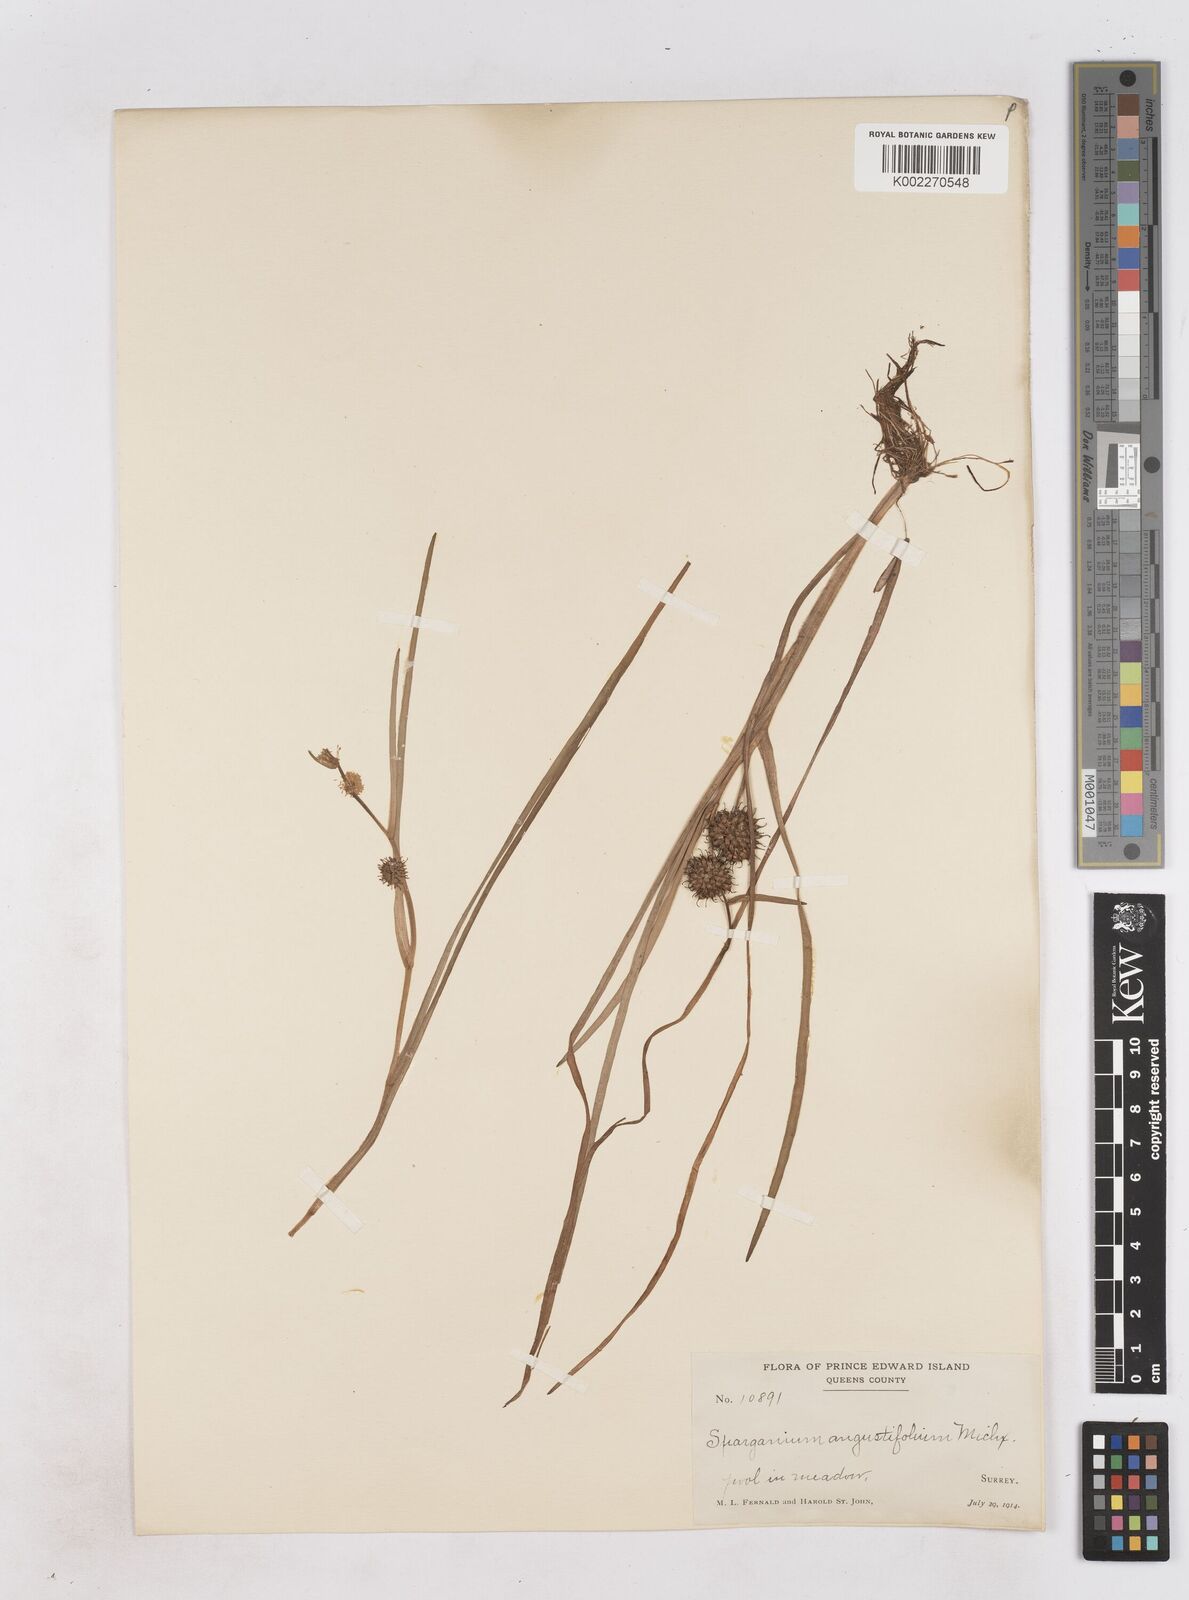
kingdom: Plantae
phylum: Tracheophyta
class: Liliopsida
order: Poales
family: Typhaceae
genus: Sparganium
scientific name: Sparganium angustifolium
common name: Floating bur-reed
